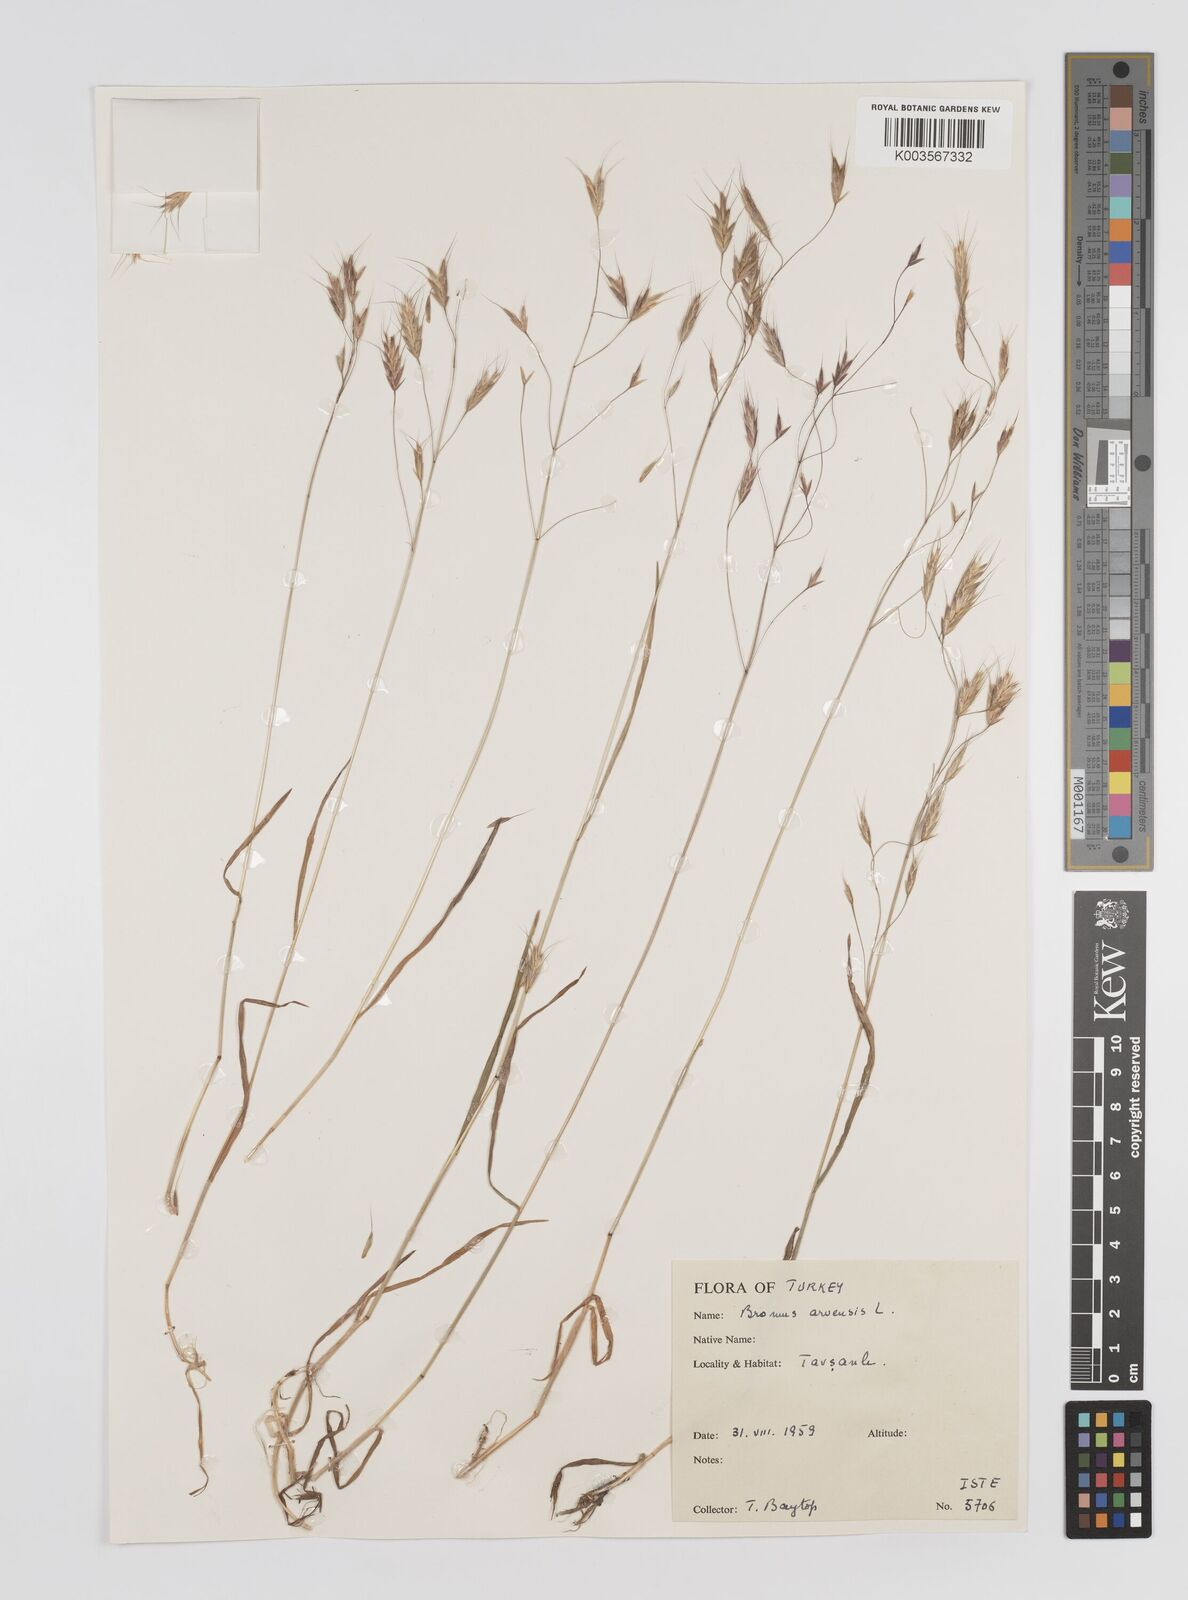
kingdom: Plantae
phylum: Tracheophyta
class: Liliopsida
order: Poales
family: Poaceae
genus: Bromus
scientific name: Bromus erectus
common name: Erect brome
